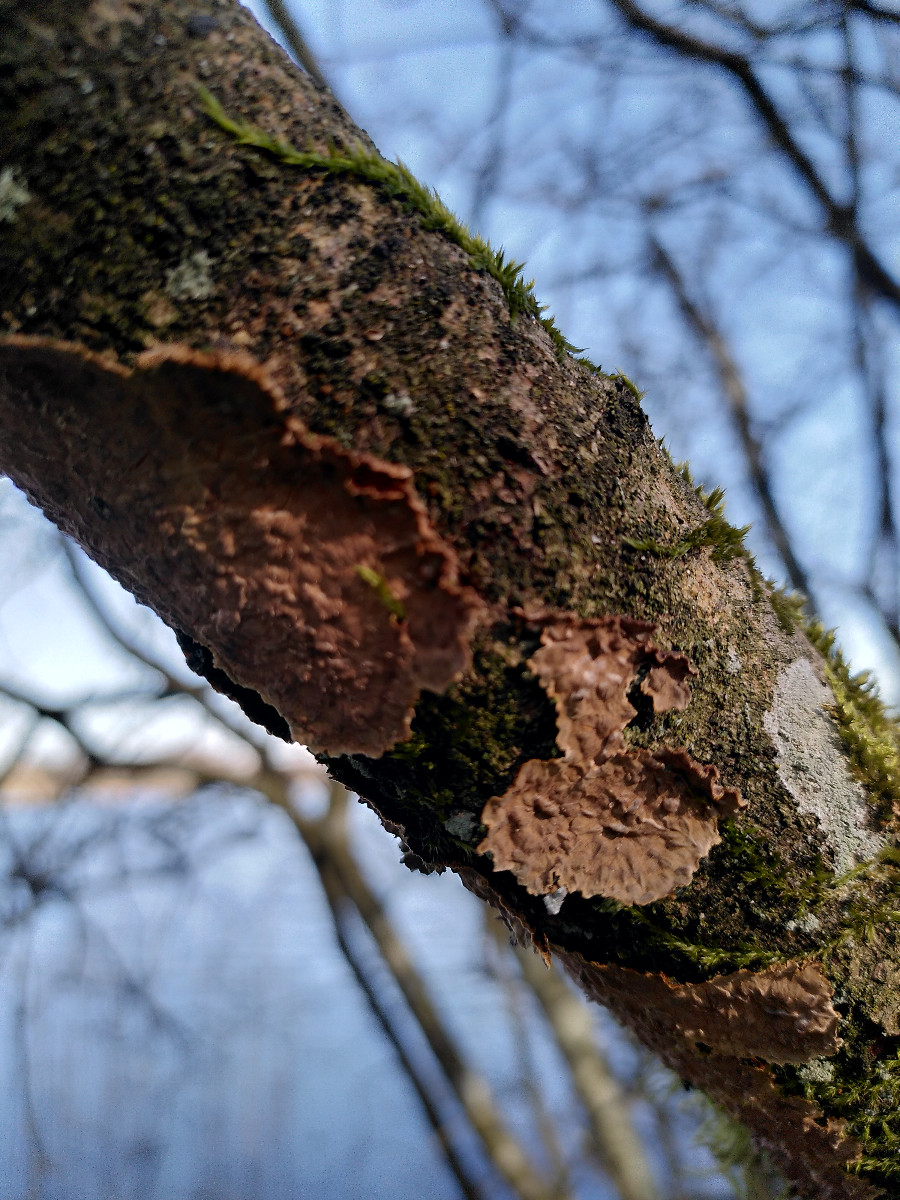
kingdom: Fungi
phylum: Basidiomycota
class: Agaricomycetes
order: Hymenochaetales
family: Hymenochaetaceae
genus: Hydnoporia
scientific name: Hydnoporia tabacina
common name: tobaksbrun ruslædersvamp
